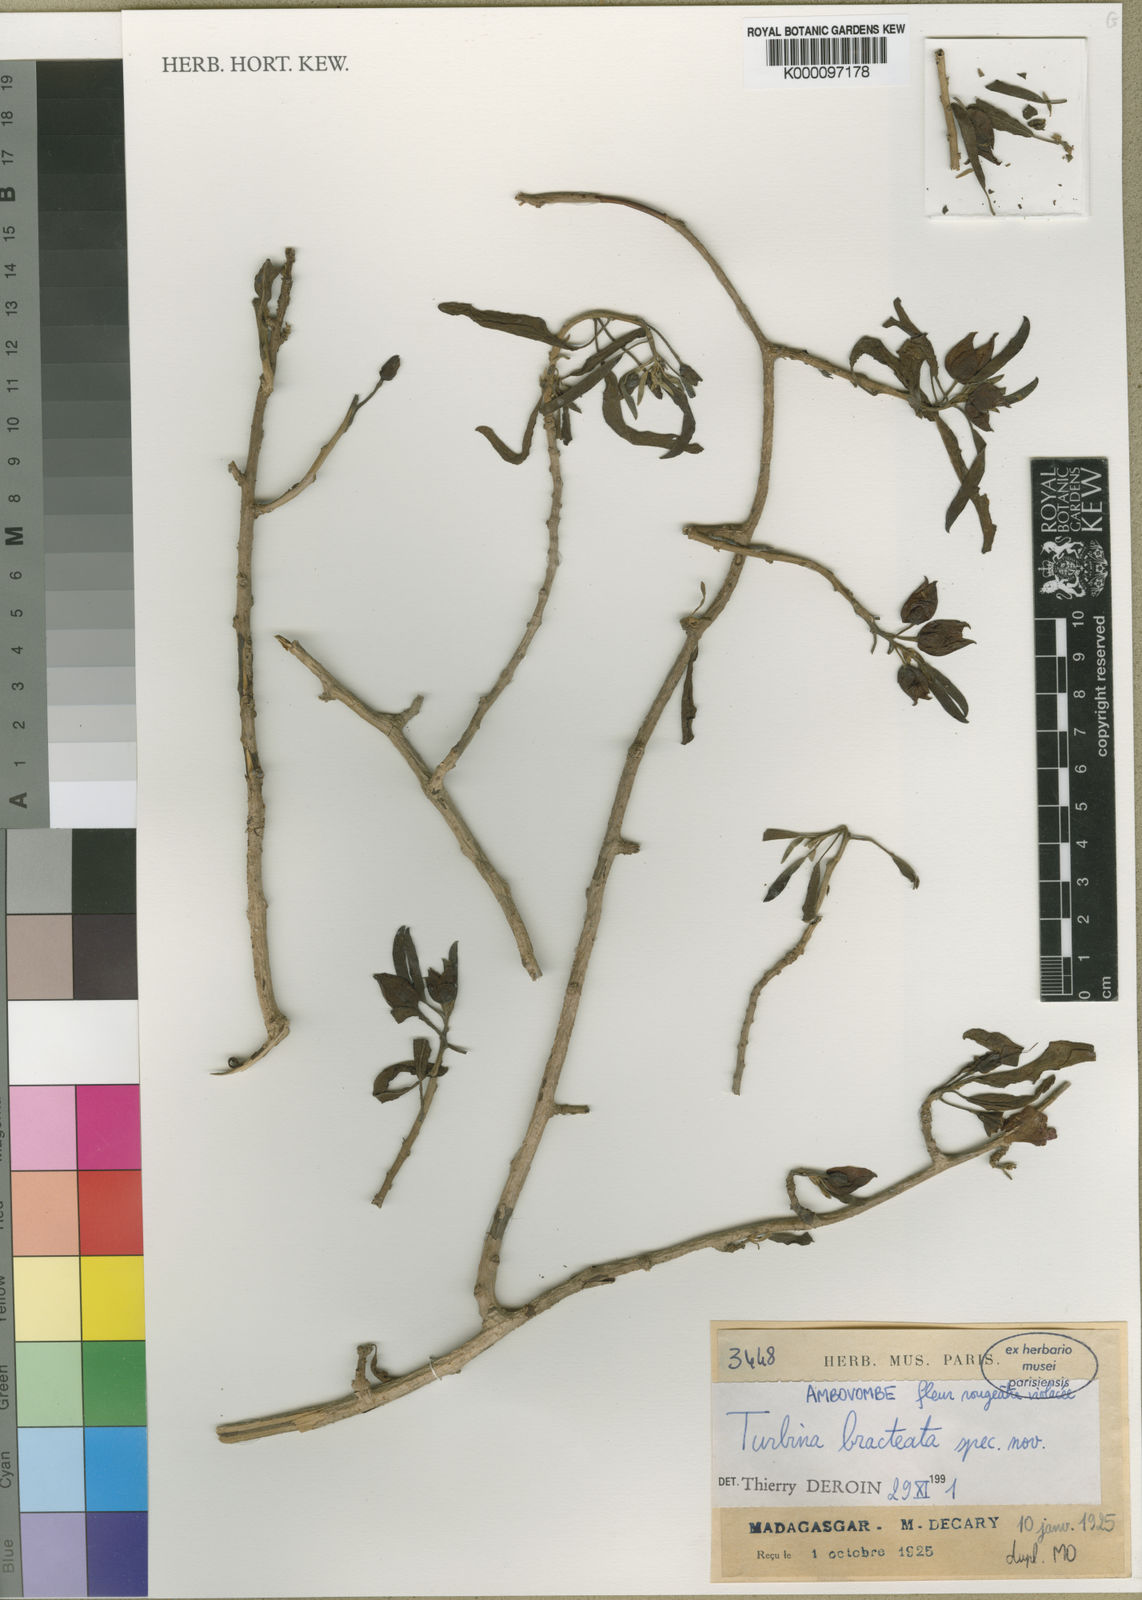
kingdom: Plantae
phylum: Tracheophyta
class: Magnoliopsida
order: Solanales
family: Convolvulaceae
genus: Ipomoea
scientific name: Ipomoea porphyrea
